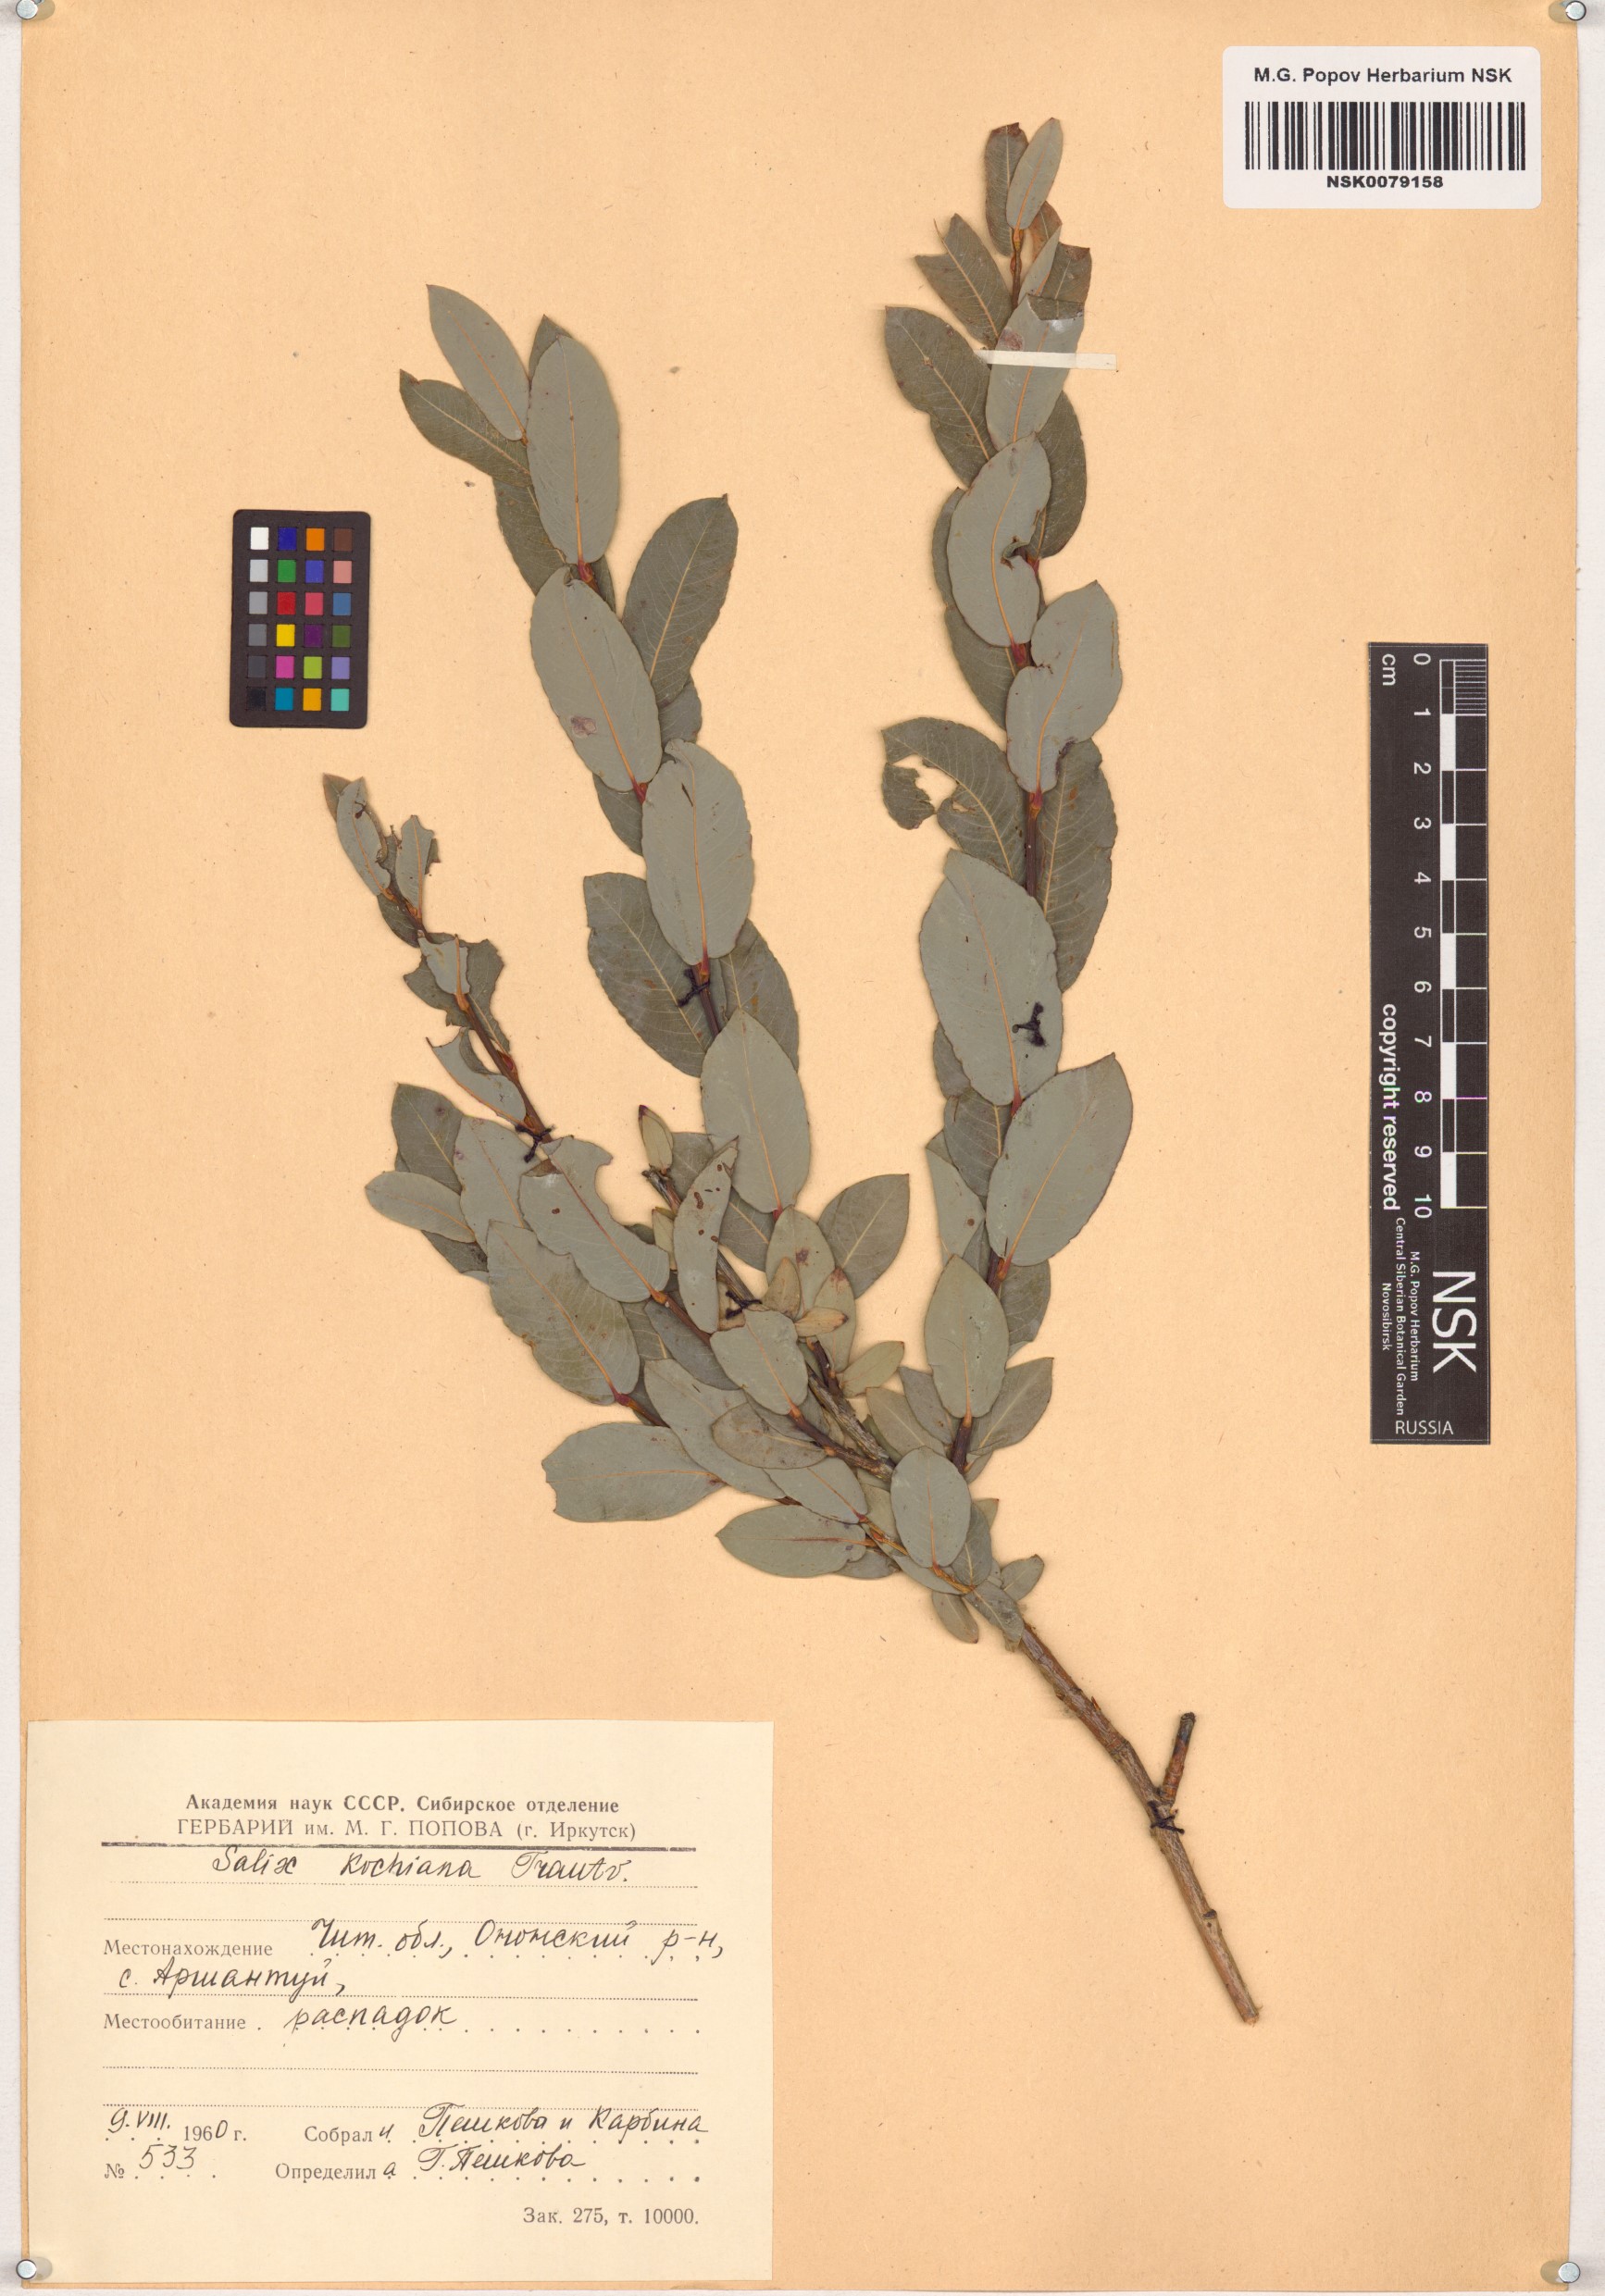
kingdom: Plantae
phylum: Tracheophyta
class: Magnoliopsida
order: Malpighiales
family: Salicaceae
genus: Salix
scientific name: Salix kochiana
